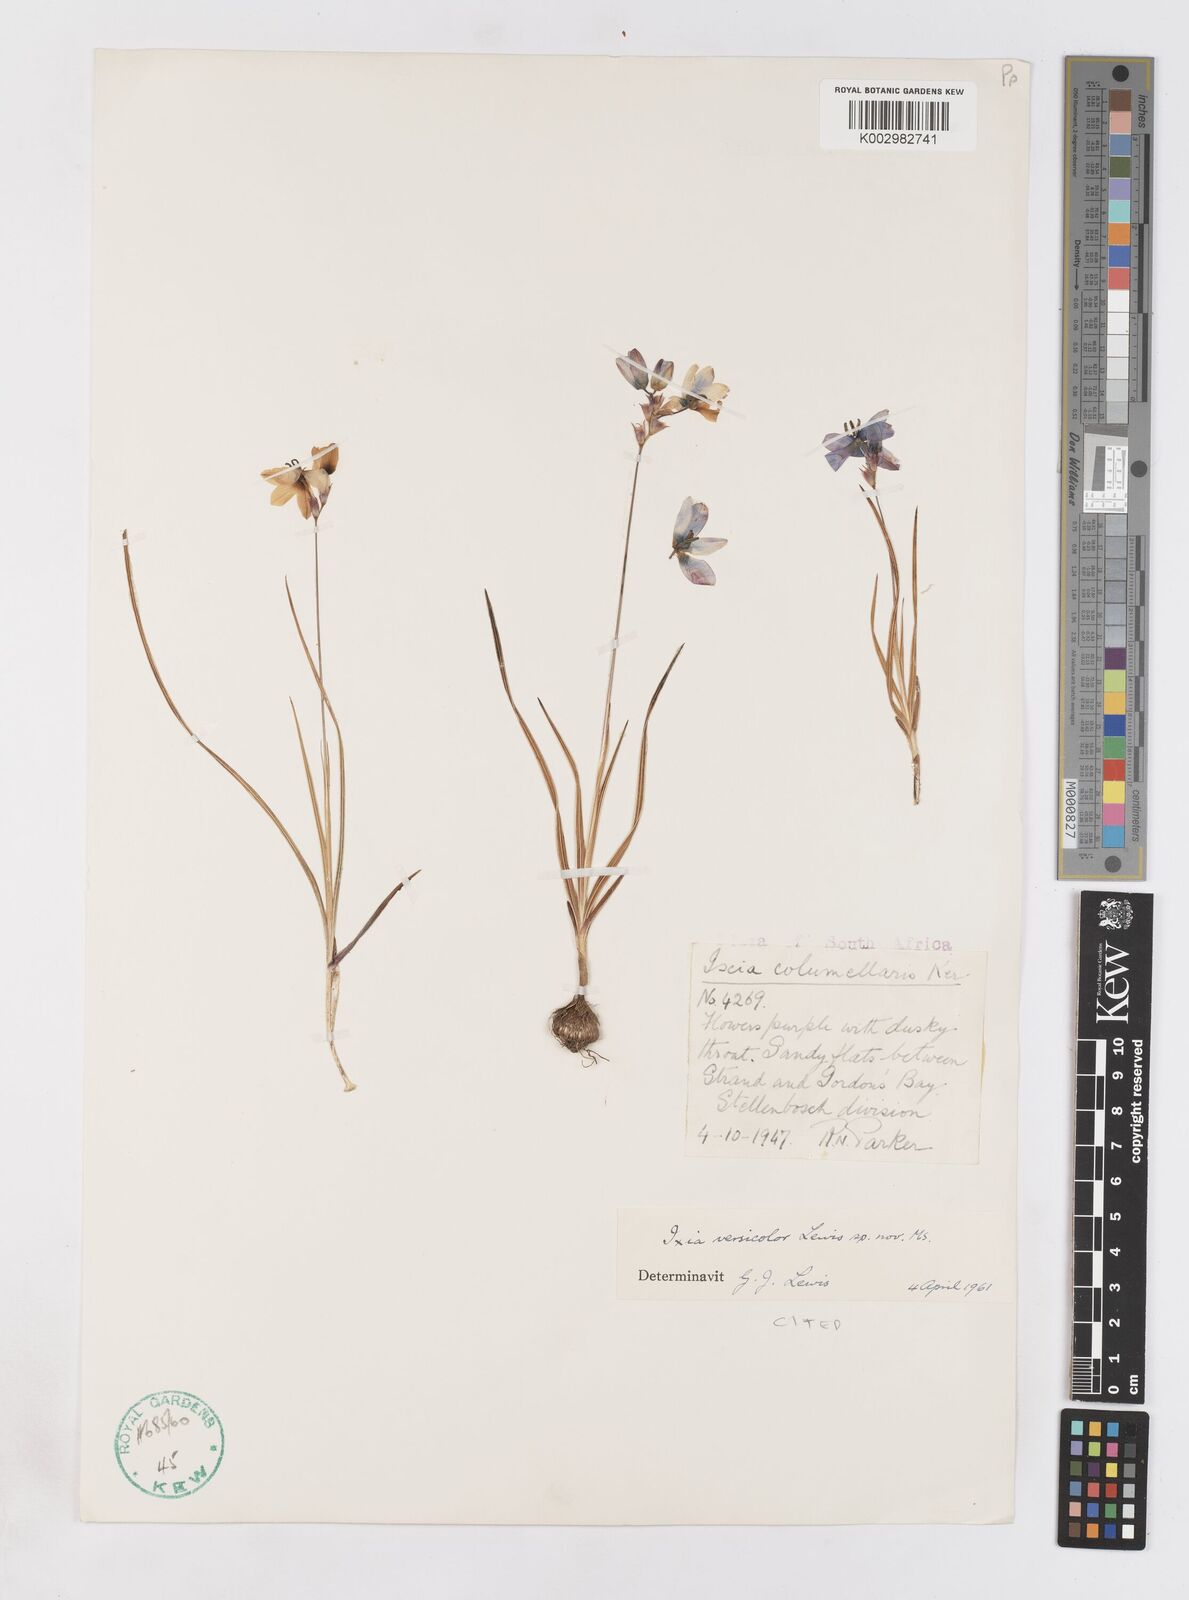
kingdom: Plantae
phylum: Tracheophyta
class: Liliopsida
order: Asparagales
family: Iridaceae
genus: Ixia
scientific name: Ixia versicolor
